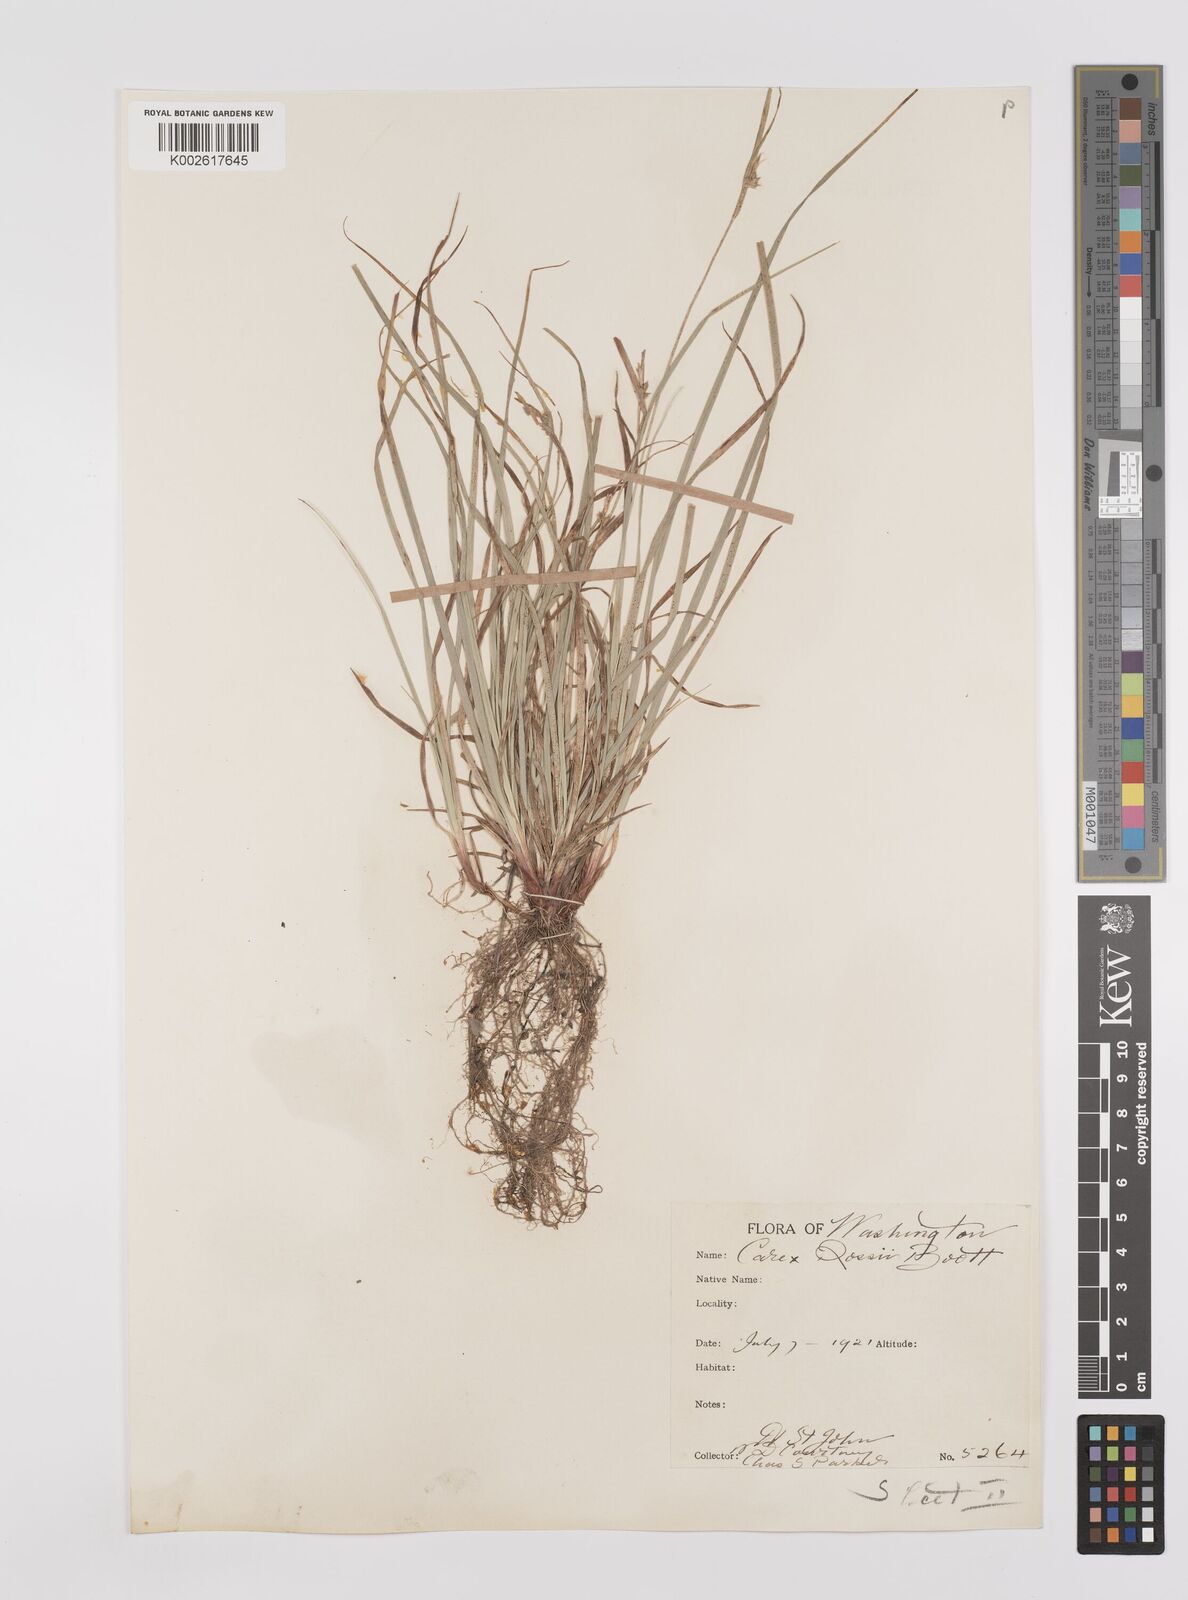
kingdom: Plantae
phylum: Tracheophyta
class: Liliopsida
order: Poales
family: Cyperaceae
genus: Carex
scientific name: Carex rossii
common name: Ross' sedge
